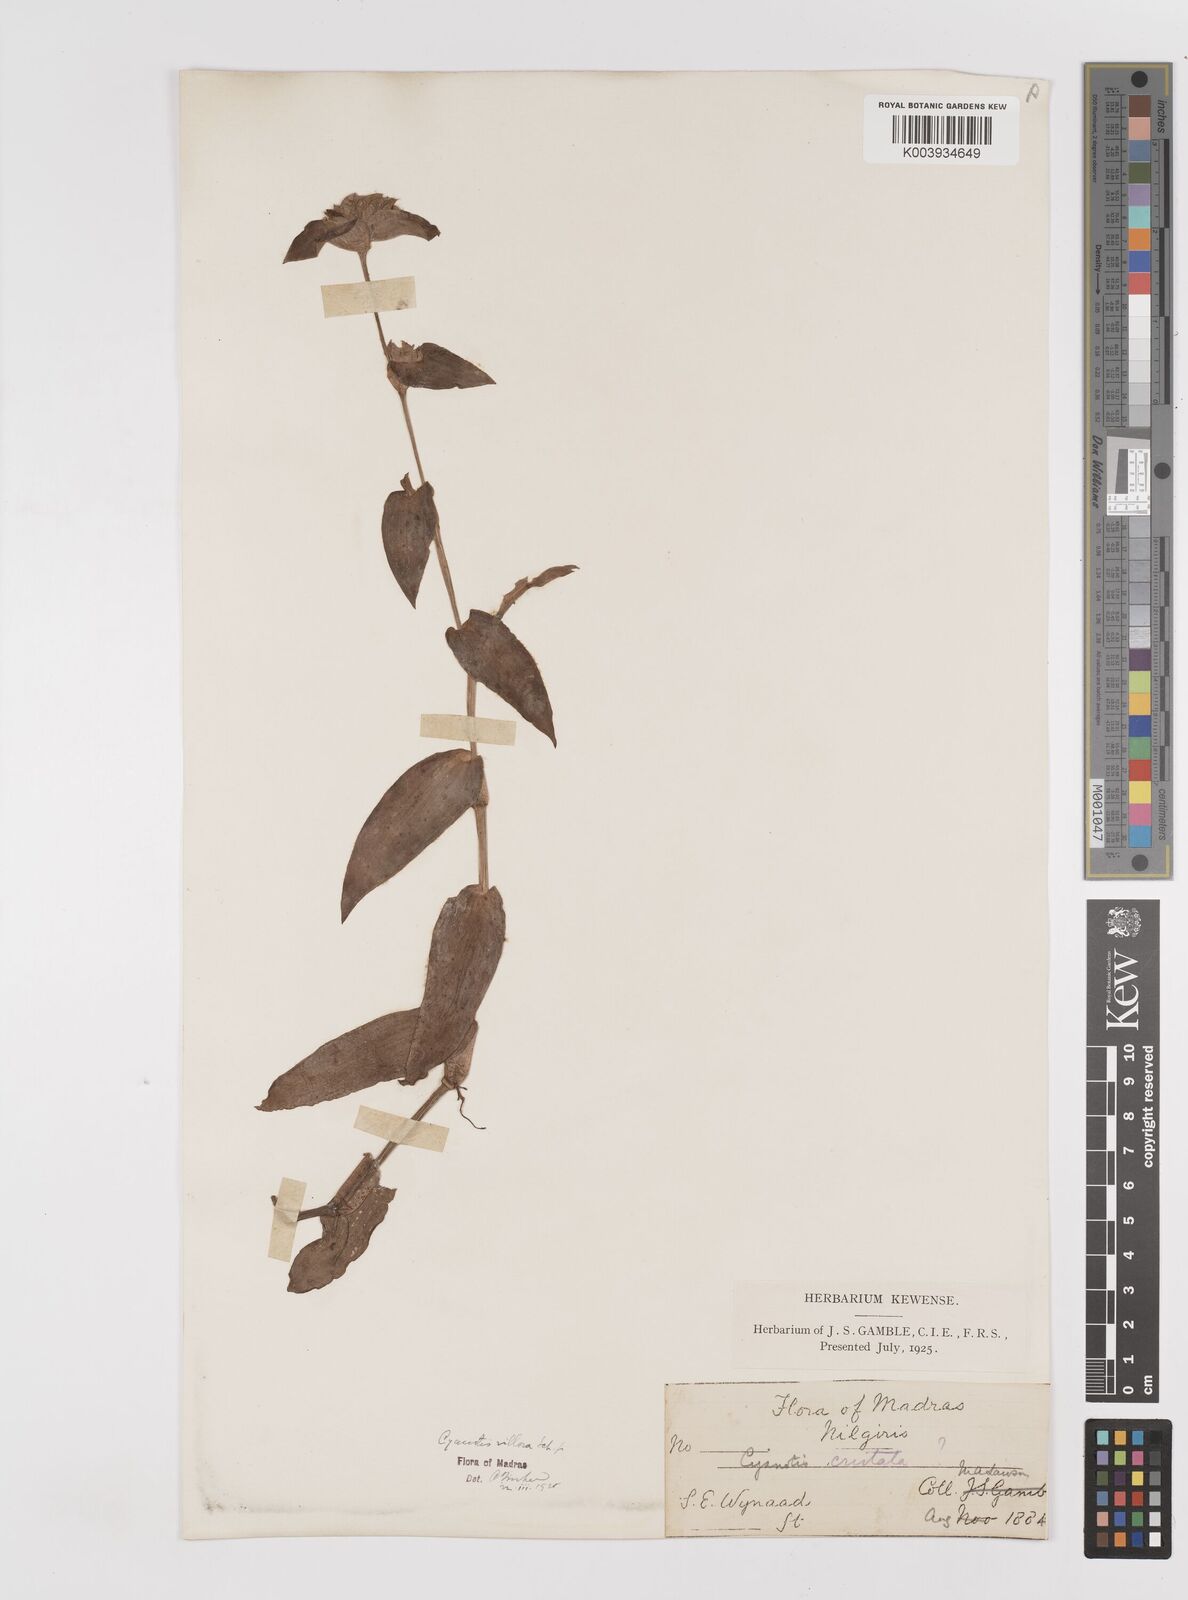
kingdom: Plantae
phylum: Tracheophyta
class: Liliopsida
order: Commelinales
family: Commelinaceae
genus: Cyanotis
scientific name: Cyanotis villosa
